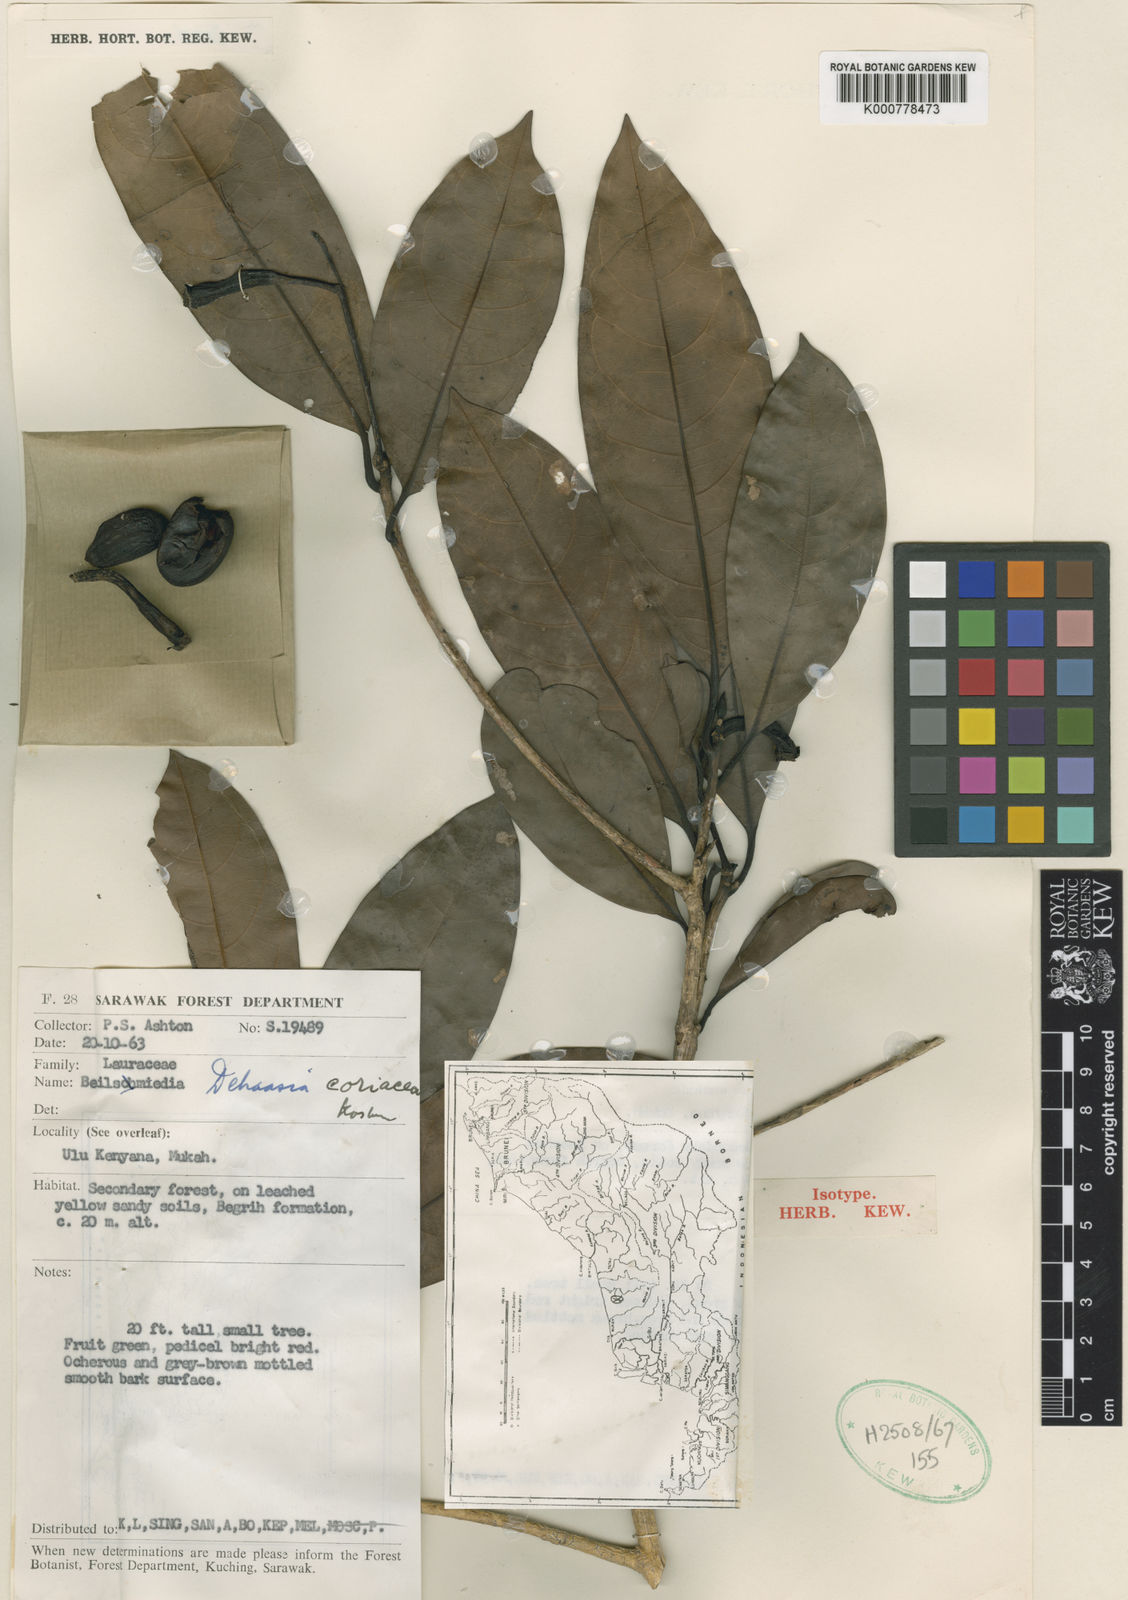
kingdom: Plantae
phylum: Tracheophyta
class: Magnoliopsida
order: Laurales
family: Lauraceae
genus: Dehaasia
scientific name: Dehaasia
